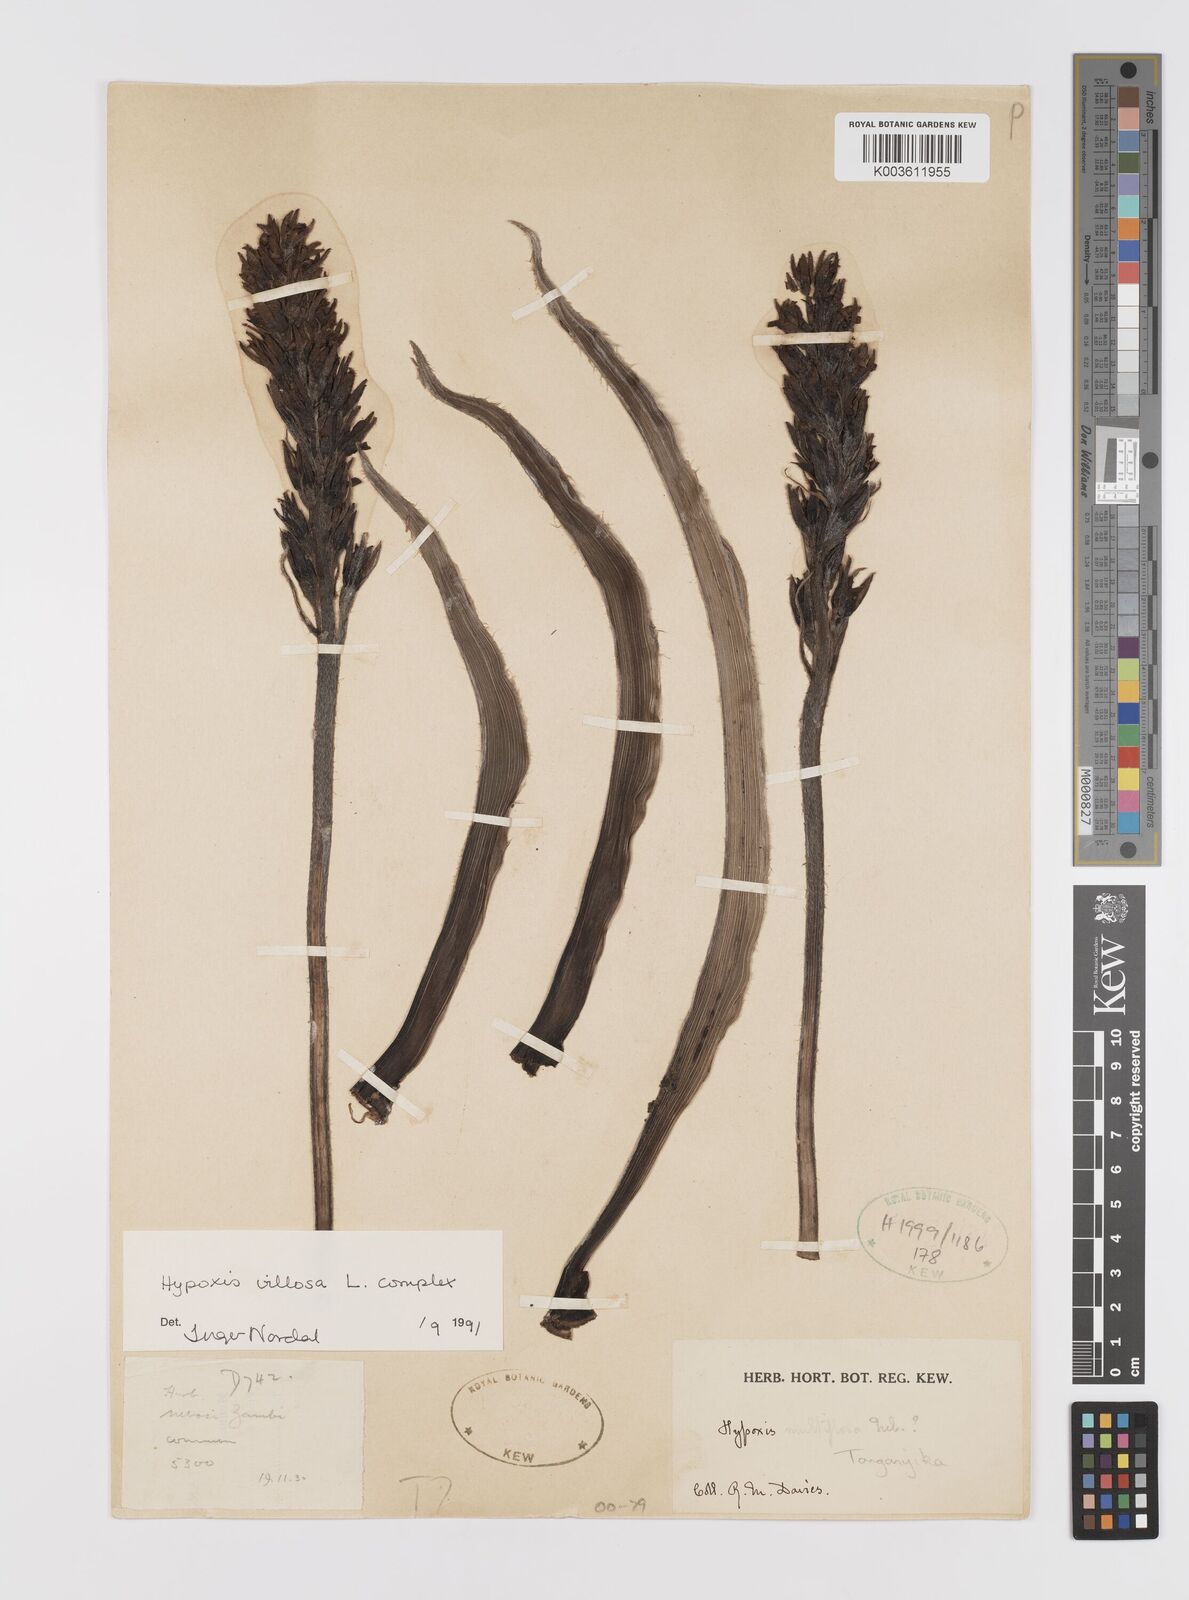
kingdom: Plantae
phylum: Tracheophyta
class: Liliopsida
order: Asparagales
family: Hypoxidaceae
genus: Hypoxis
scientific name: Hypoxis
